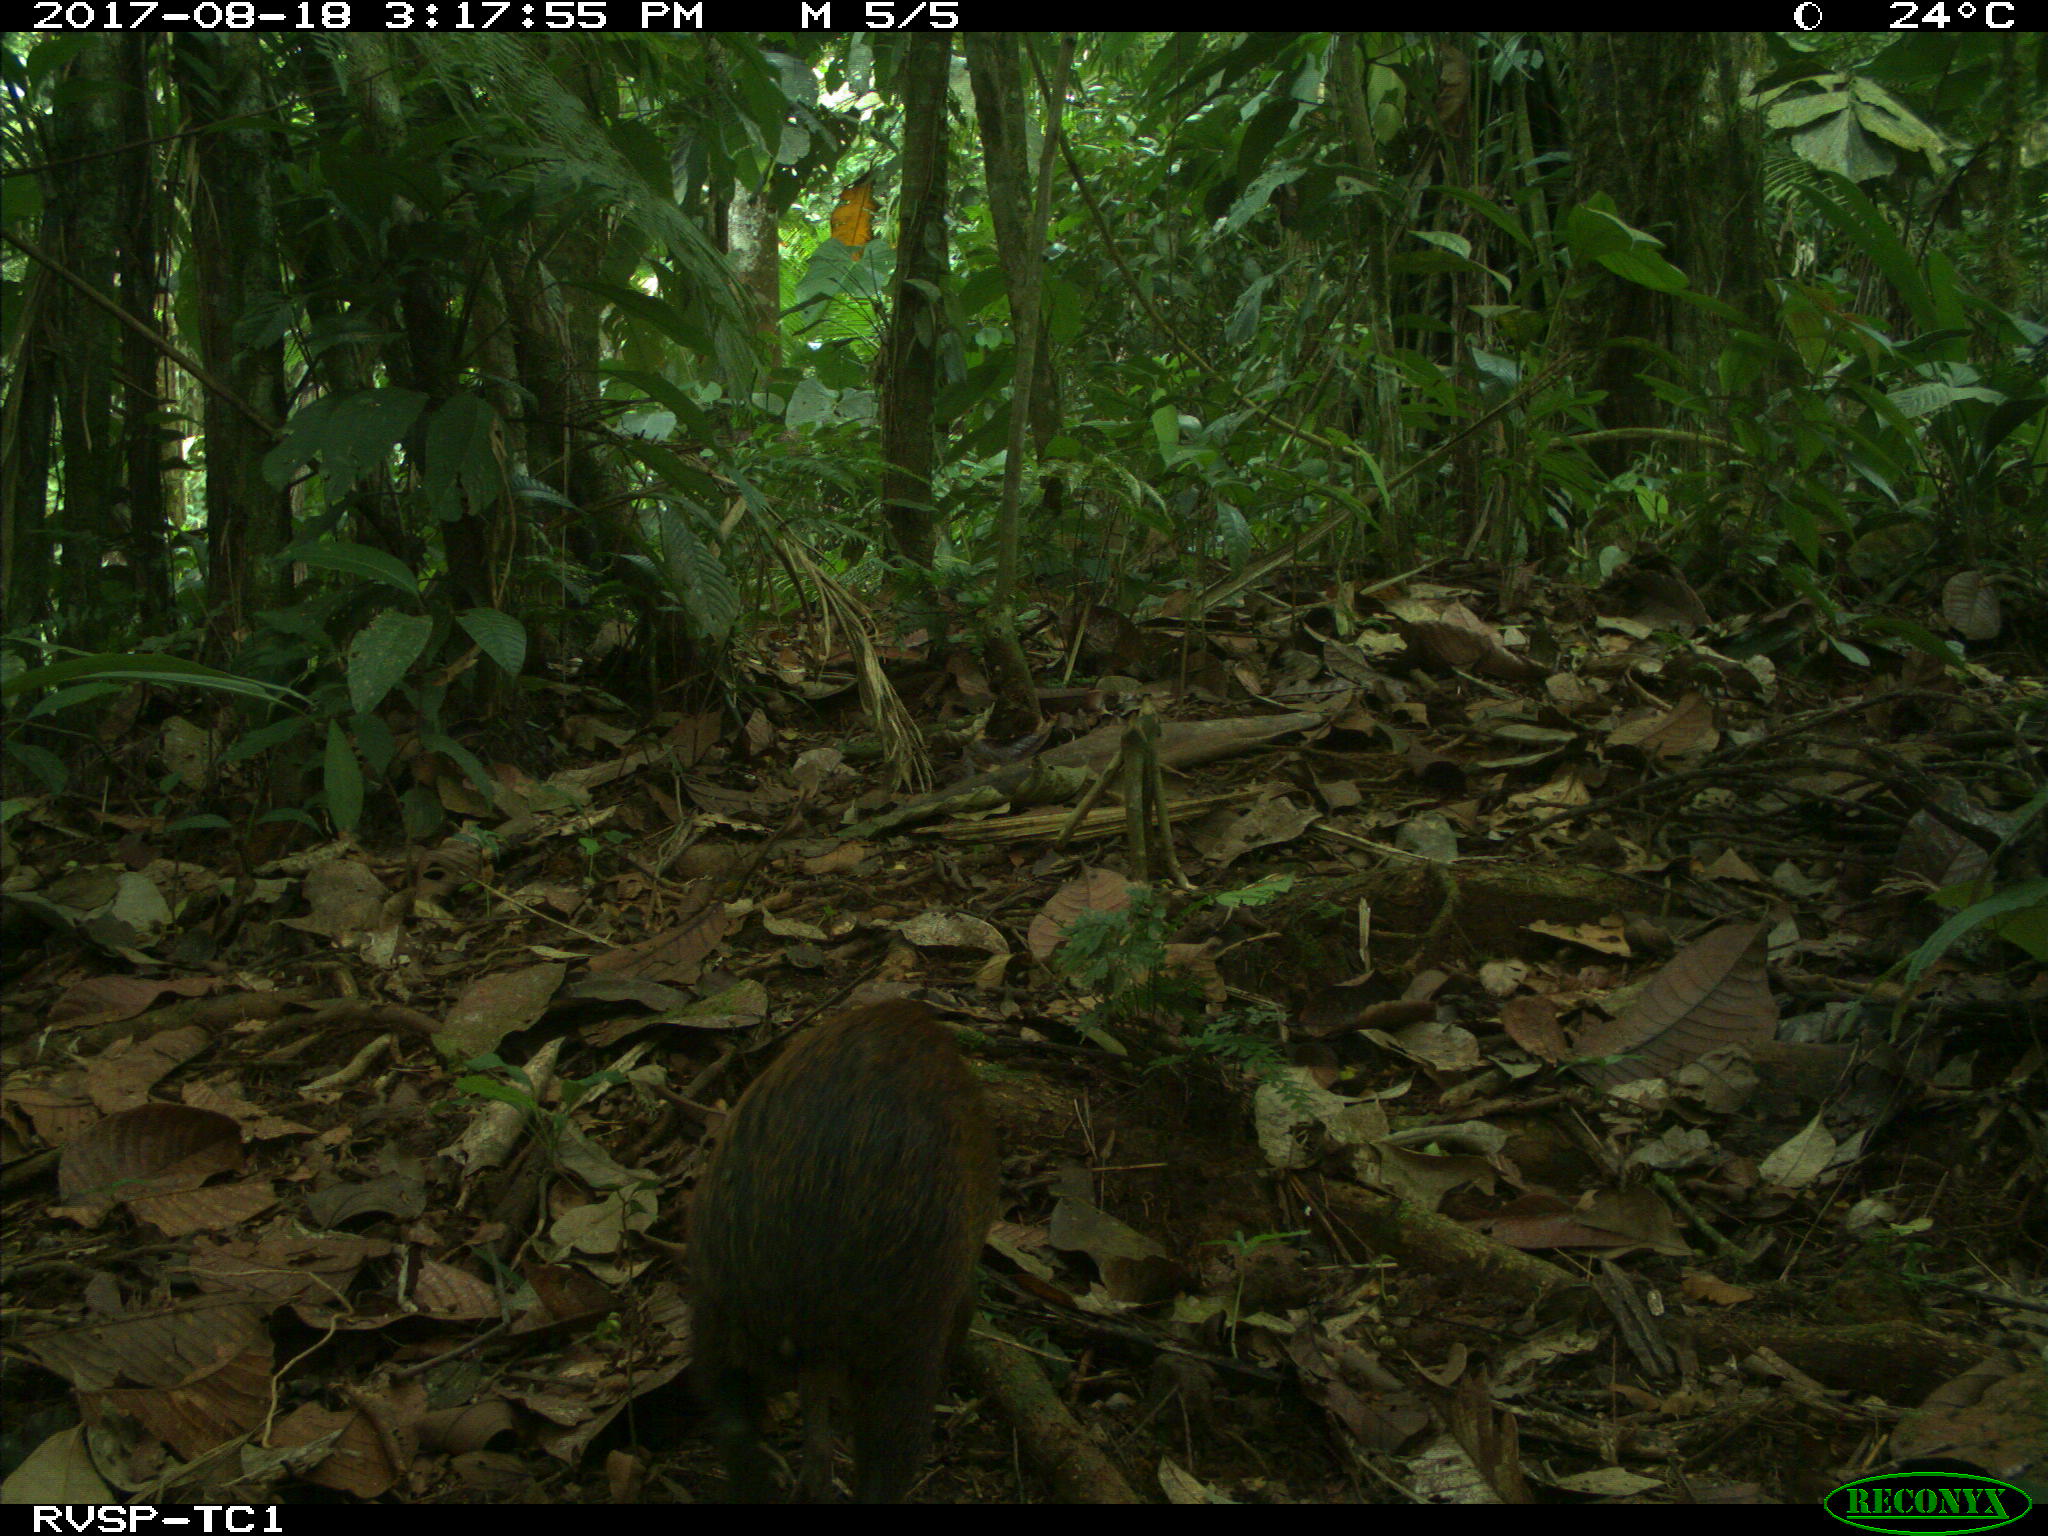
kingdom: Animalia
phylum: Chordata
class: Mammalia
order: Rodentia
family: Dasyproctidae
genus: Dasyprocta
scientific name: Dasyprocta punctata
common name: Central american agouti
